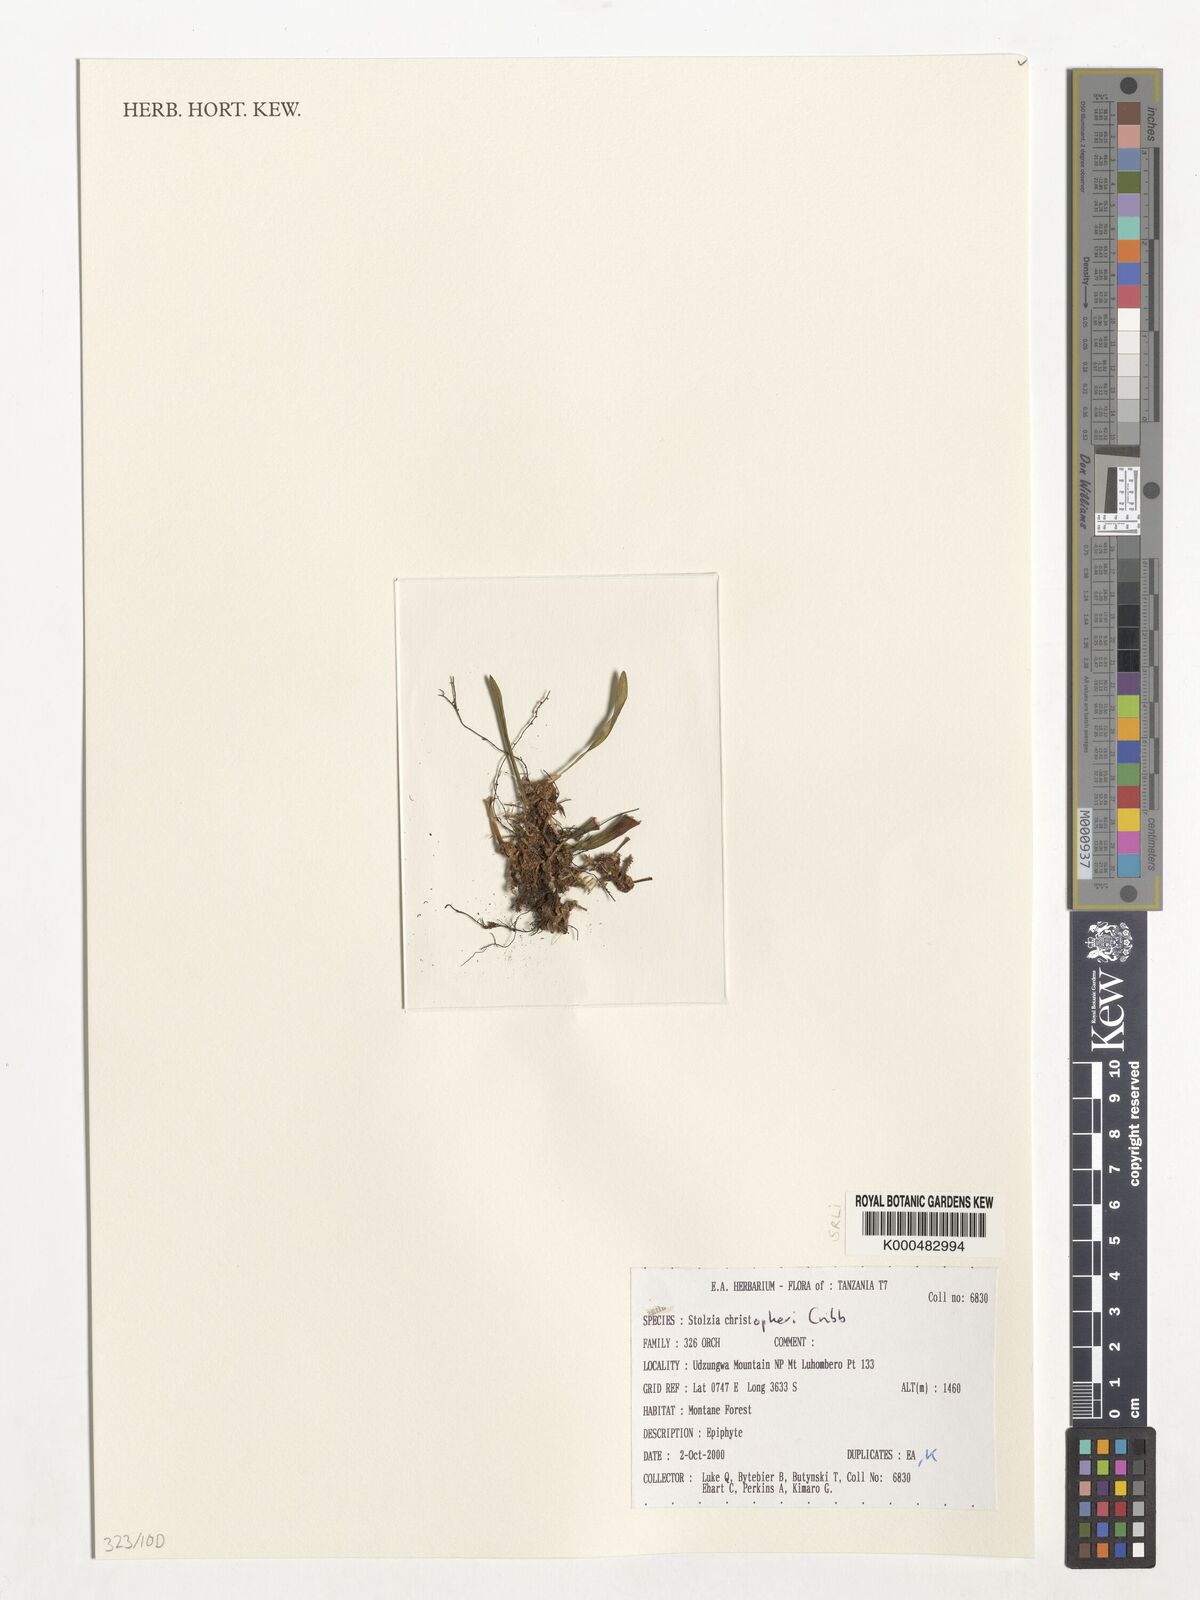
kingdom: Plantae
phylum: Tracheophyta
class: Liliopsida
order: Asparagales
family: Orchidaceae
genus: Porpax
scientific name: Porpax christopheri
